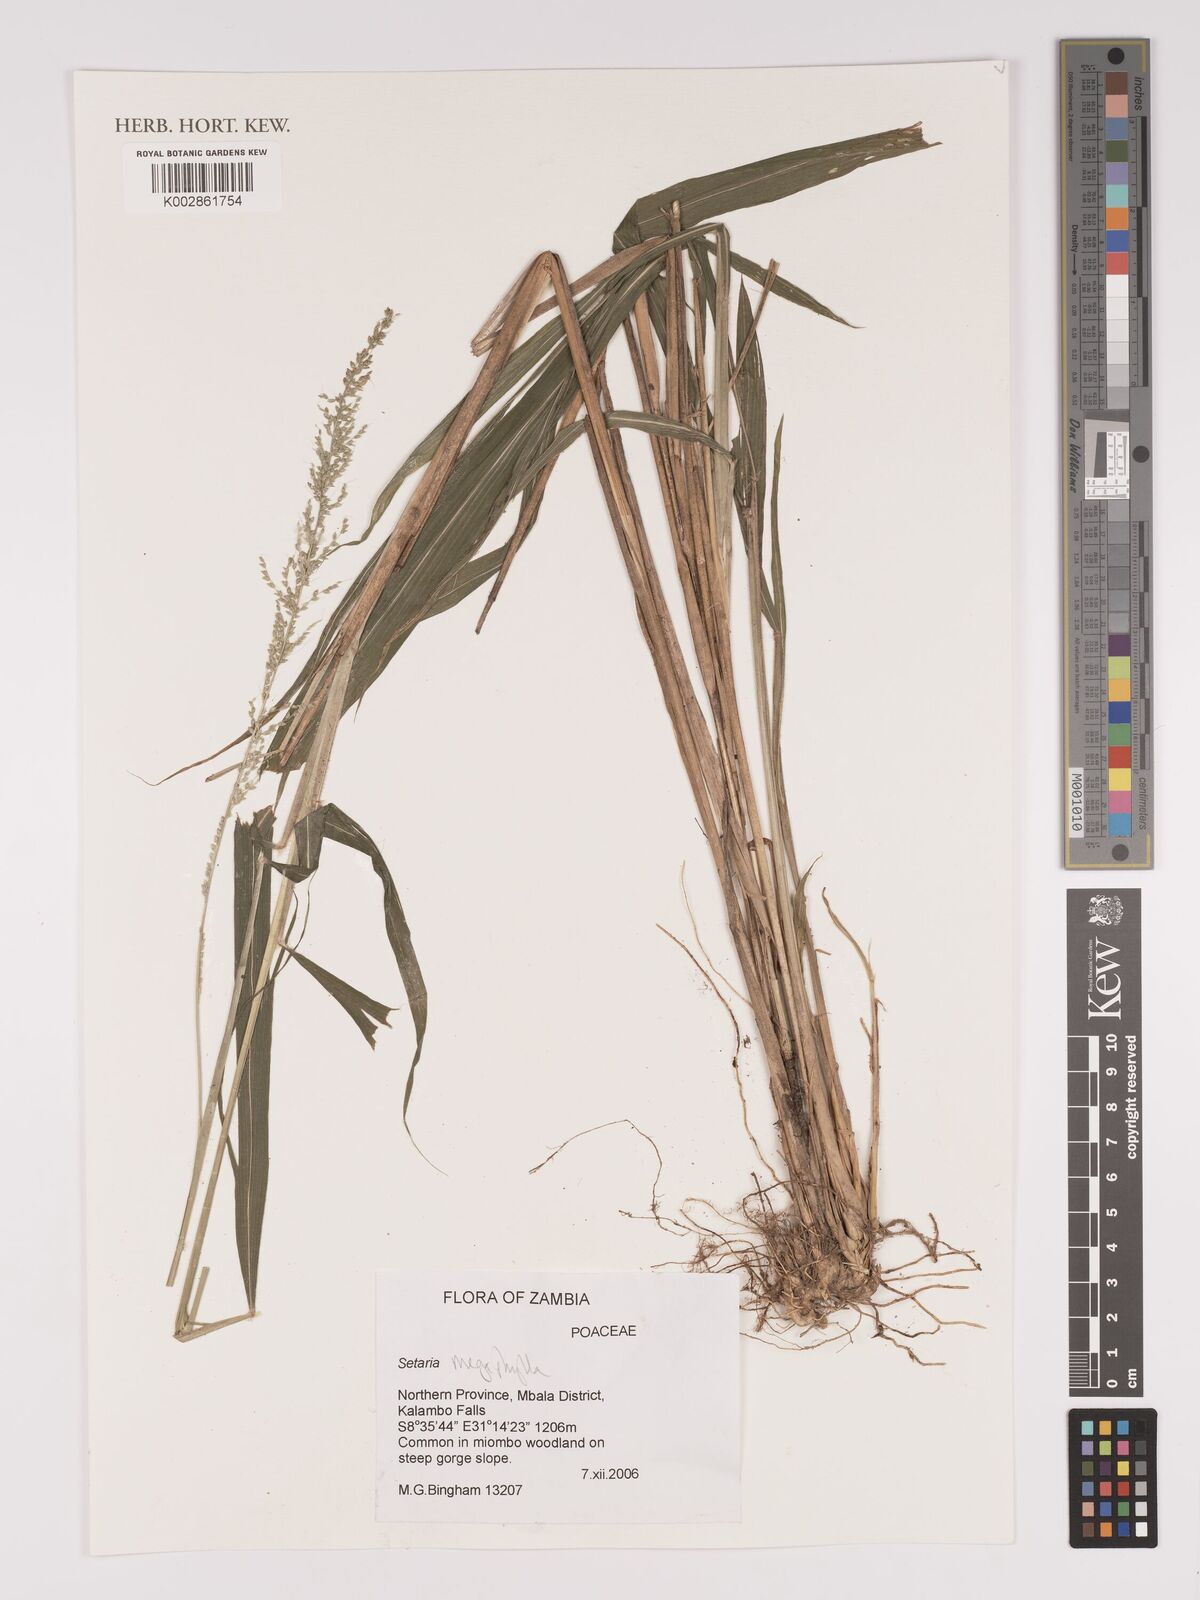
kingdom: Plantae
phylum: Tracheophyta
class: Liliopsida
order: Poales
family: Poaceae
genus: Setaria
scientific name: Setaria megaphylla
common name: Bigleaf bristlegrass
